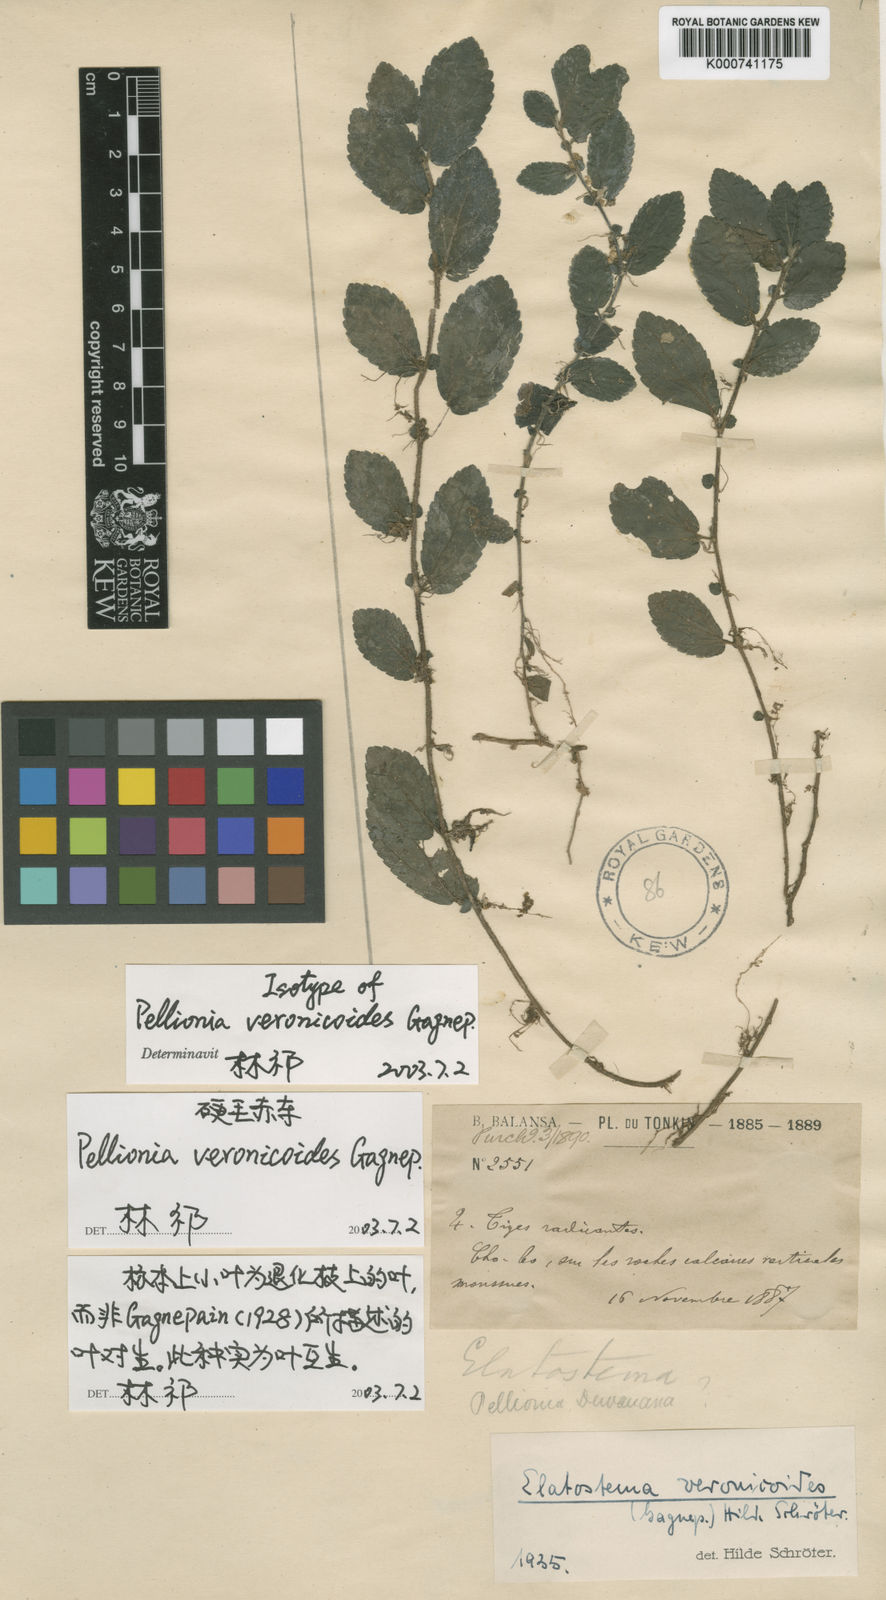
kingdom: Plantae
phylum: Tracheophyta
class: Magnoliopsida
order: Rosales
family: Urticaceae
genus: Elatostema
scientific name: Elatostema veronicoides
